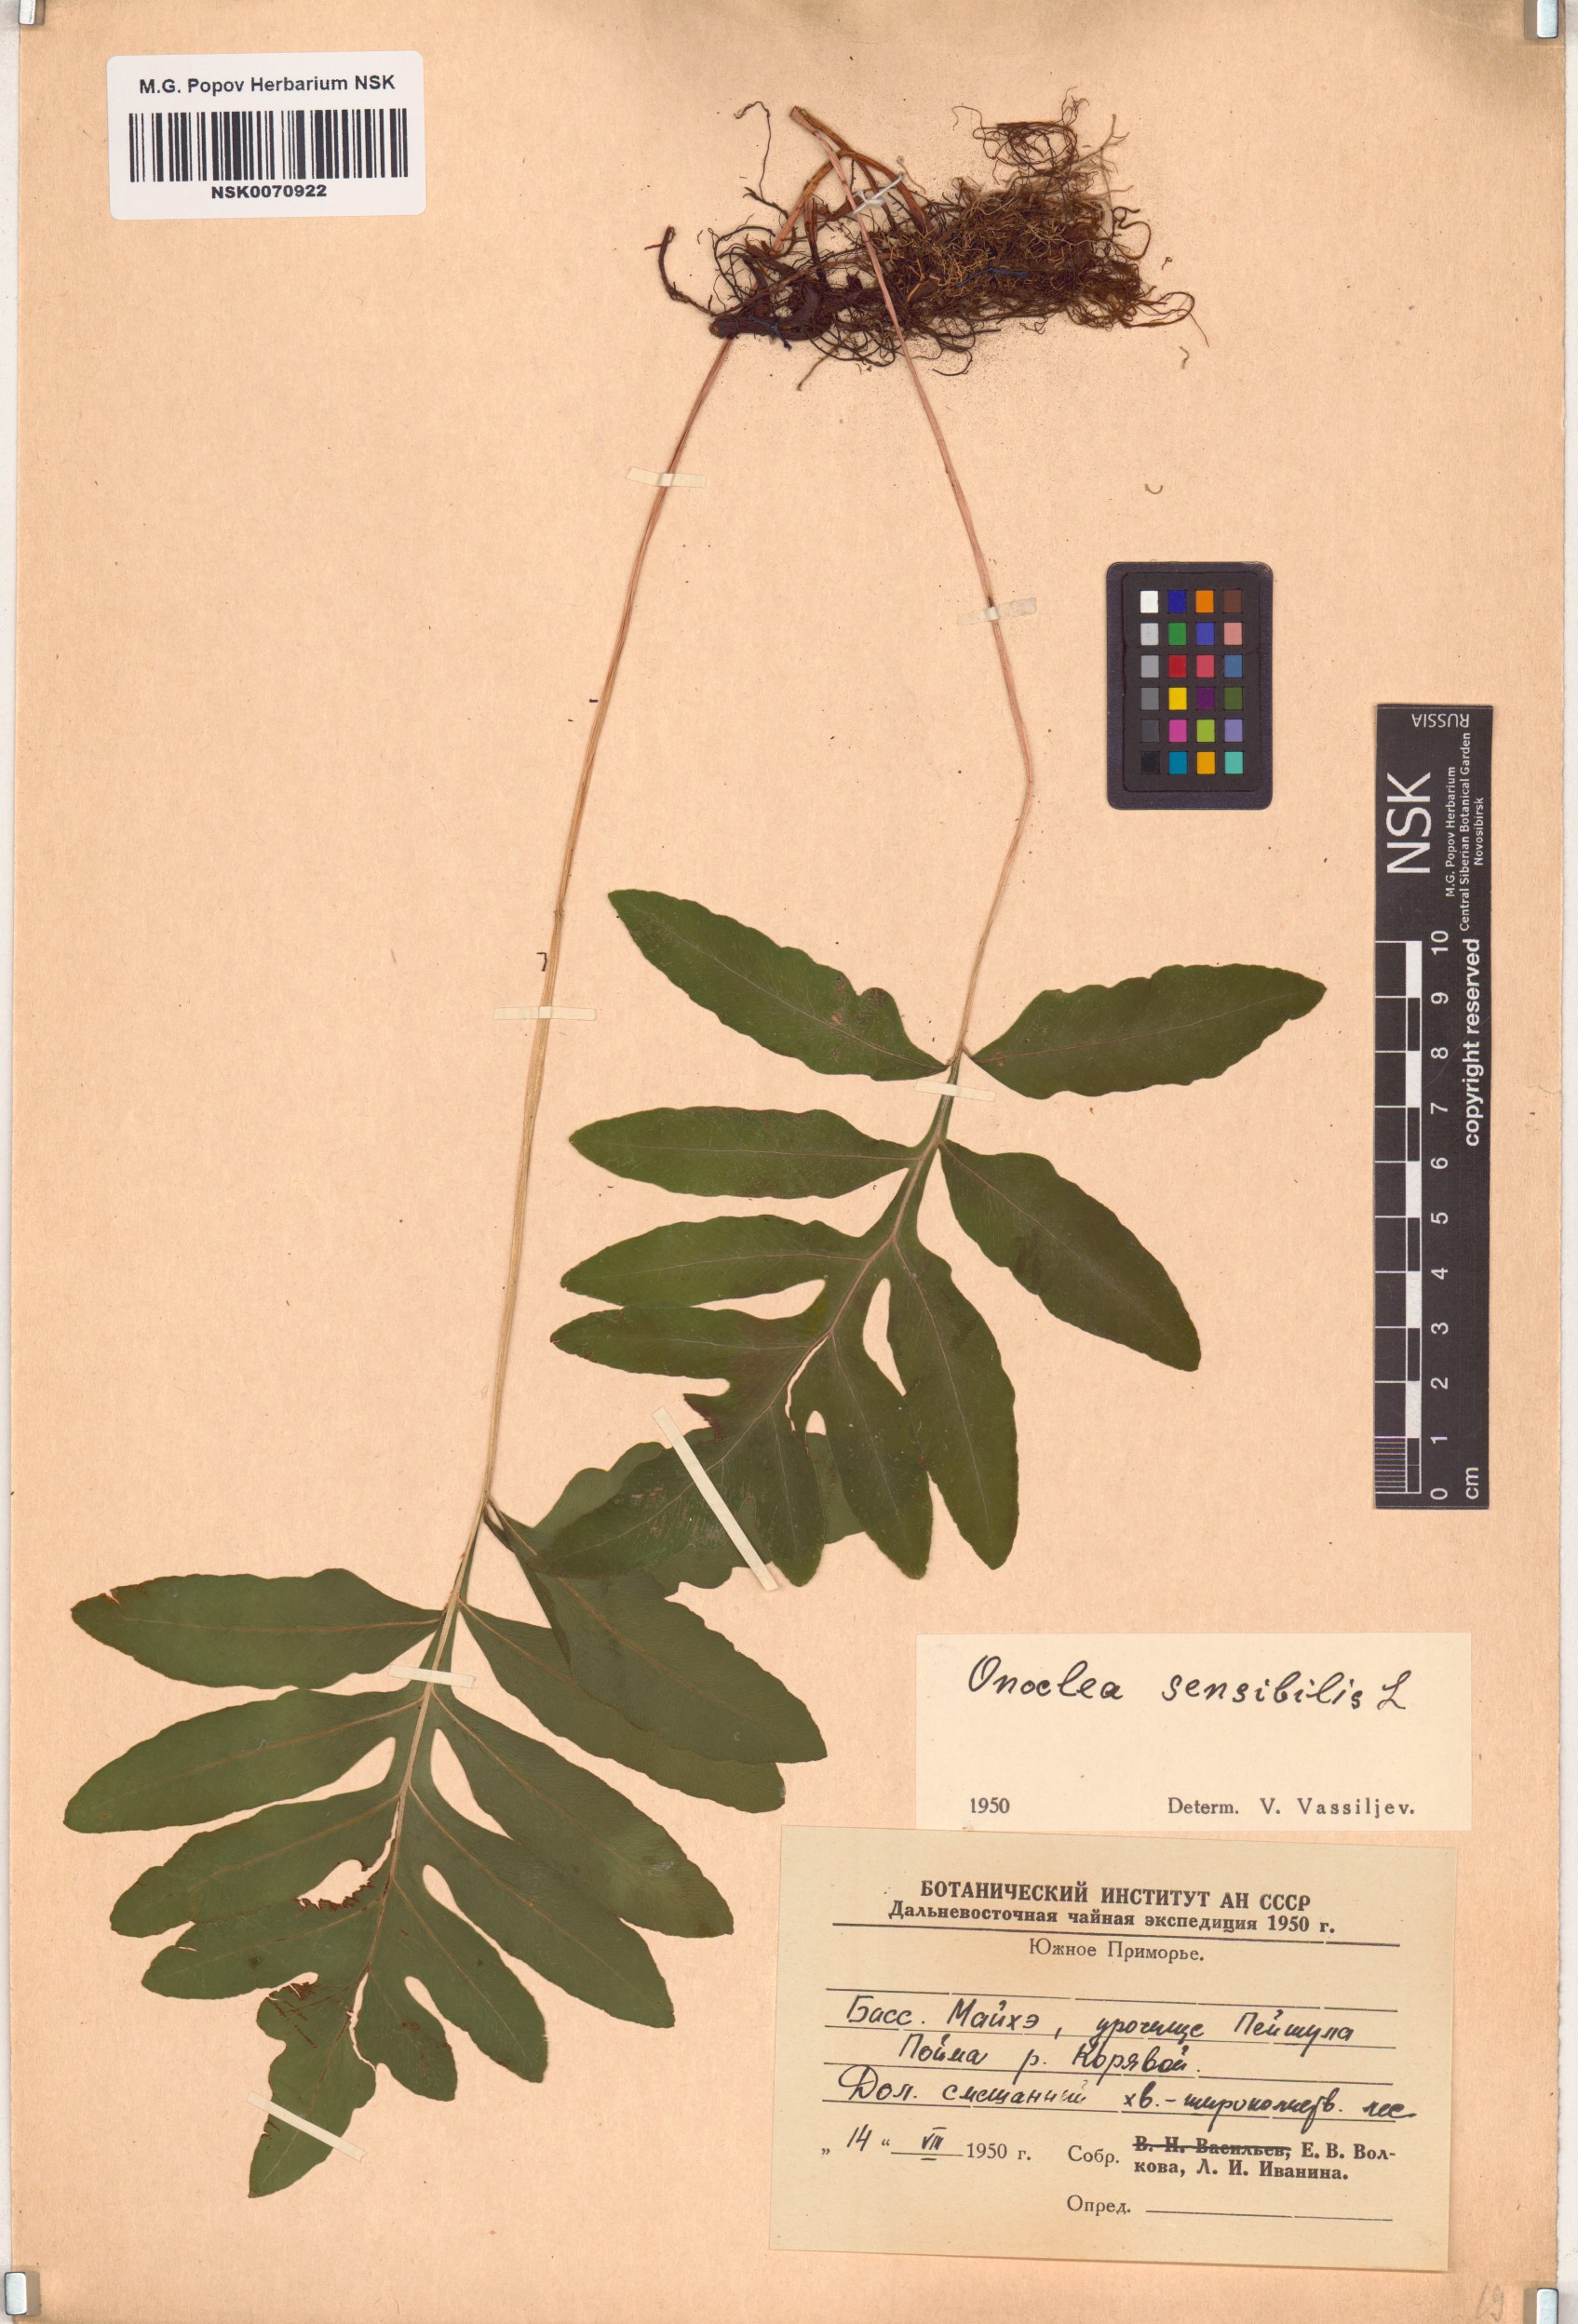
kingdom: Plantae
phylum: Tracheophyta
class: Polypodiopsida
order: Polypodiales
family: Onocleaceae
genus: Onoclea
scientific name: Onoclea sensibilis
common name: Sensitive fern
